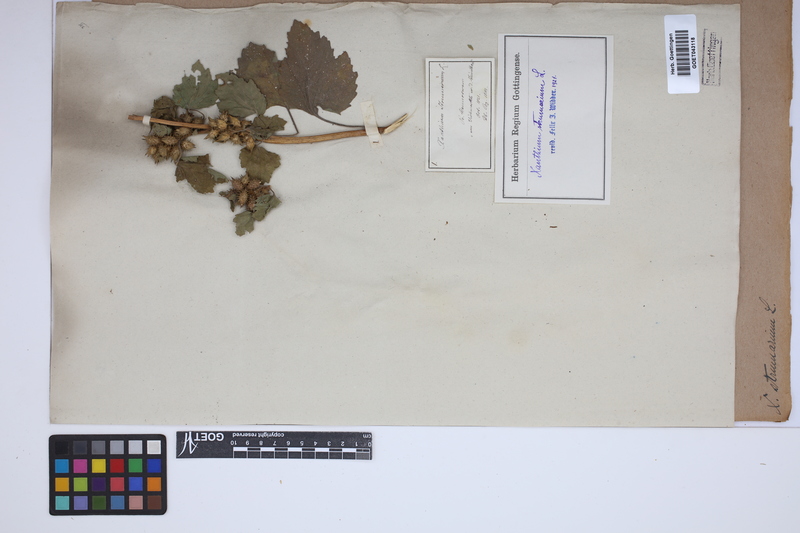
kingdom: Plantae
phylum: Tracheophyta
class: Magnoliopsida
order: Asterales
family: Asteraceae
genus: Xanthium
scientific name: Xanthium strumarium
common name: Rough cocklebur
